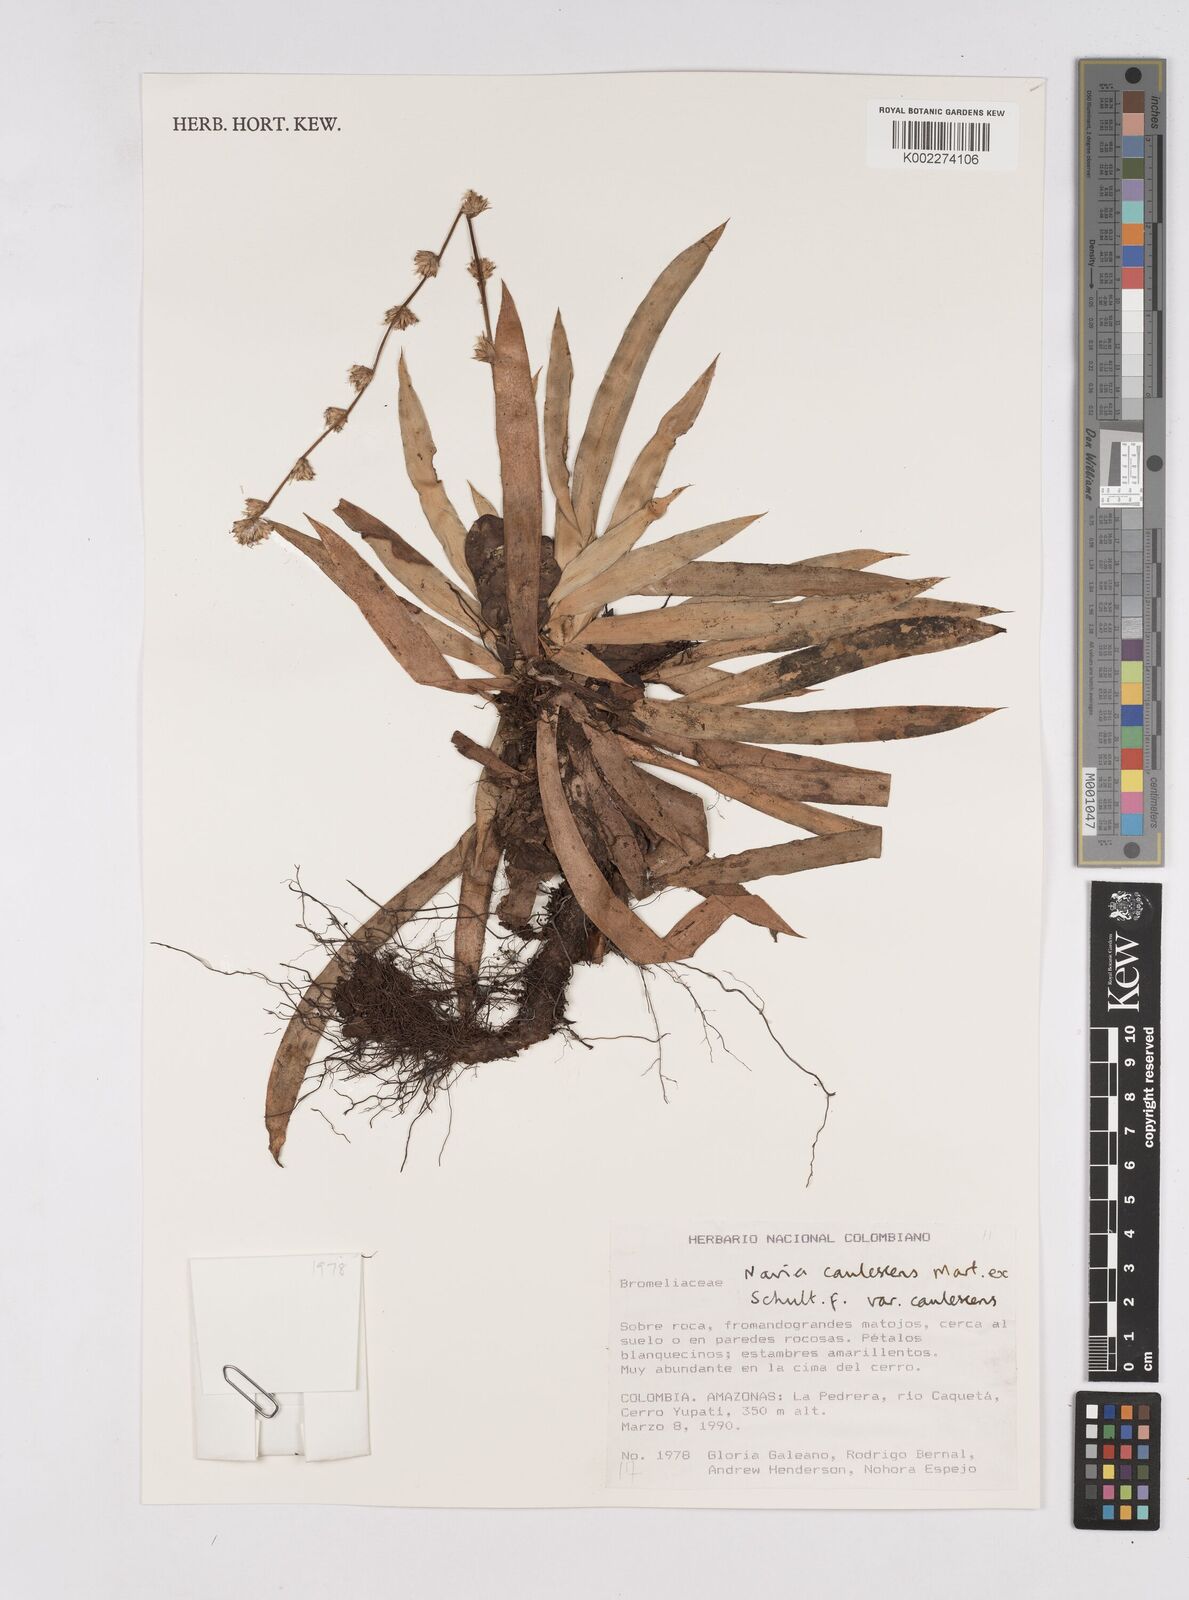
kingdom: Plantae
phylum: Tracheophyta
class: Liliopsida
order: Poales
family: Bromeliaceae
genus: Navia
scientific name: Navia caulescens
